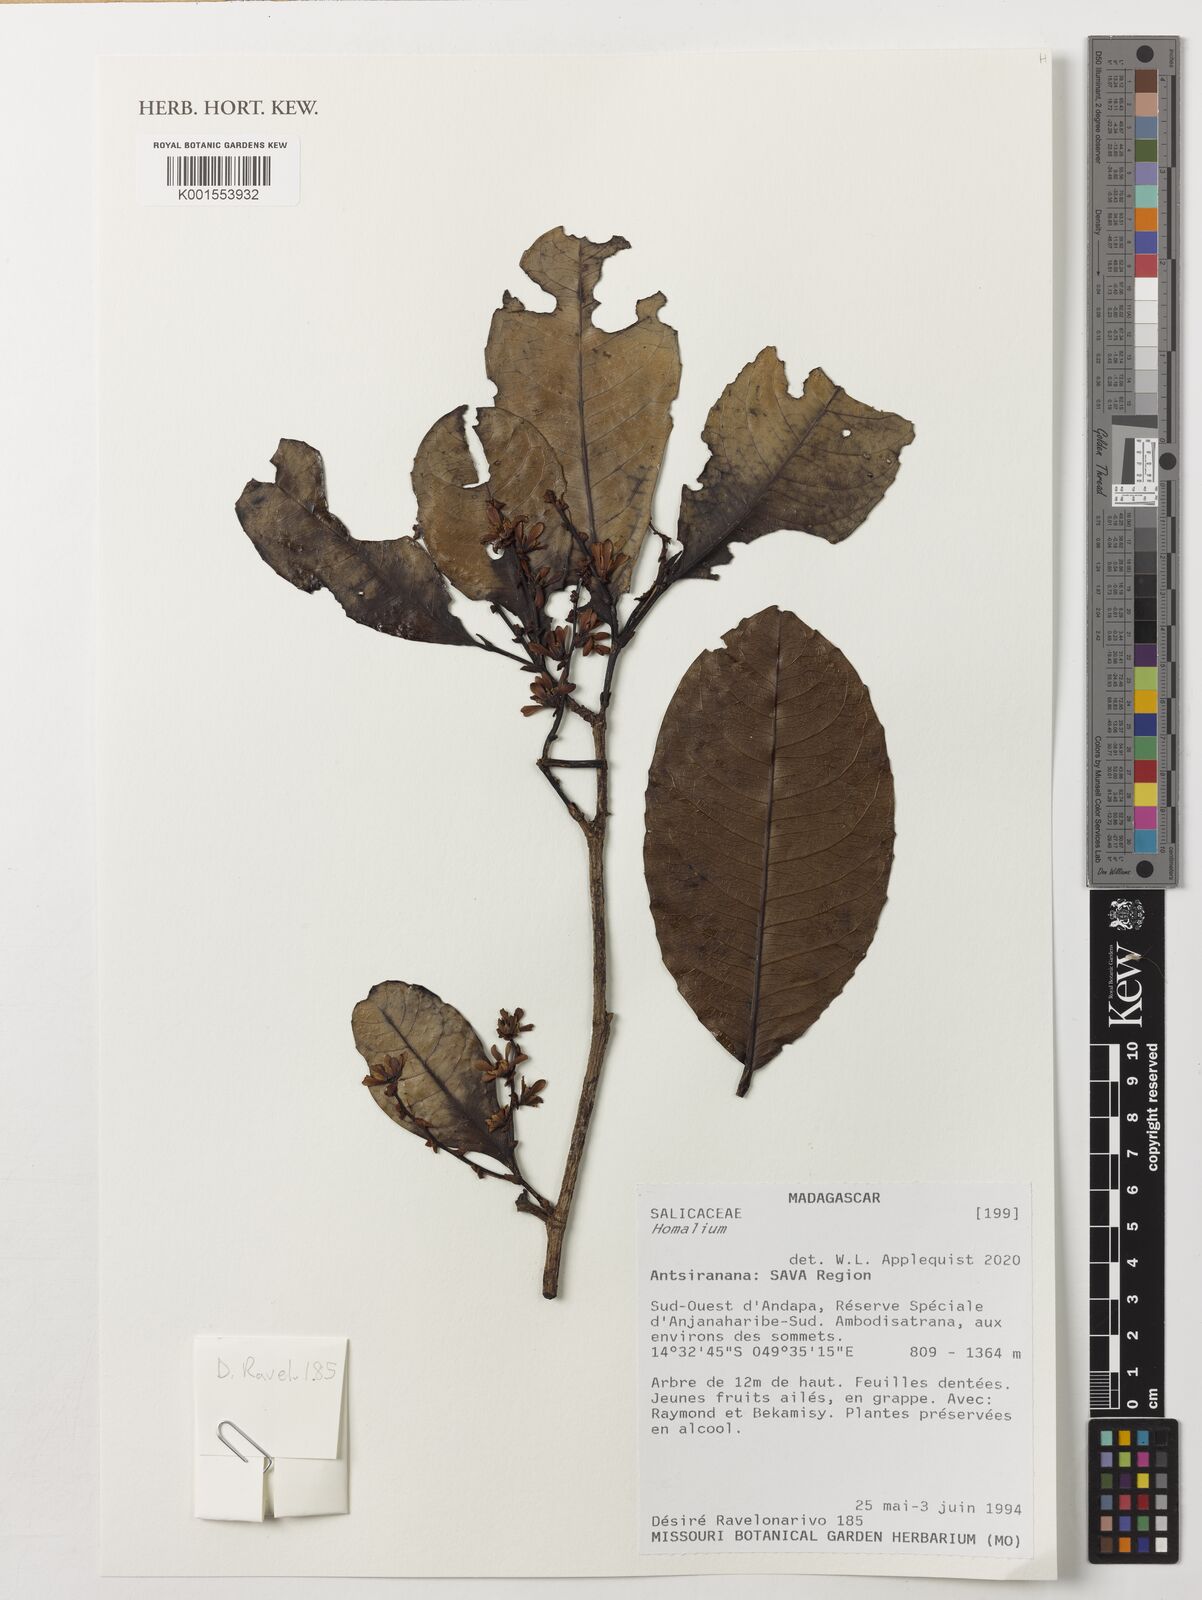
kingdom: Plantae
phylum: Tracheophyta
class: Magnoliopsida
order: Malpighiales
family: Salicaceae
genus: Homalium
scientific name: Homalium
